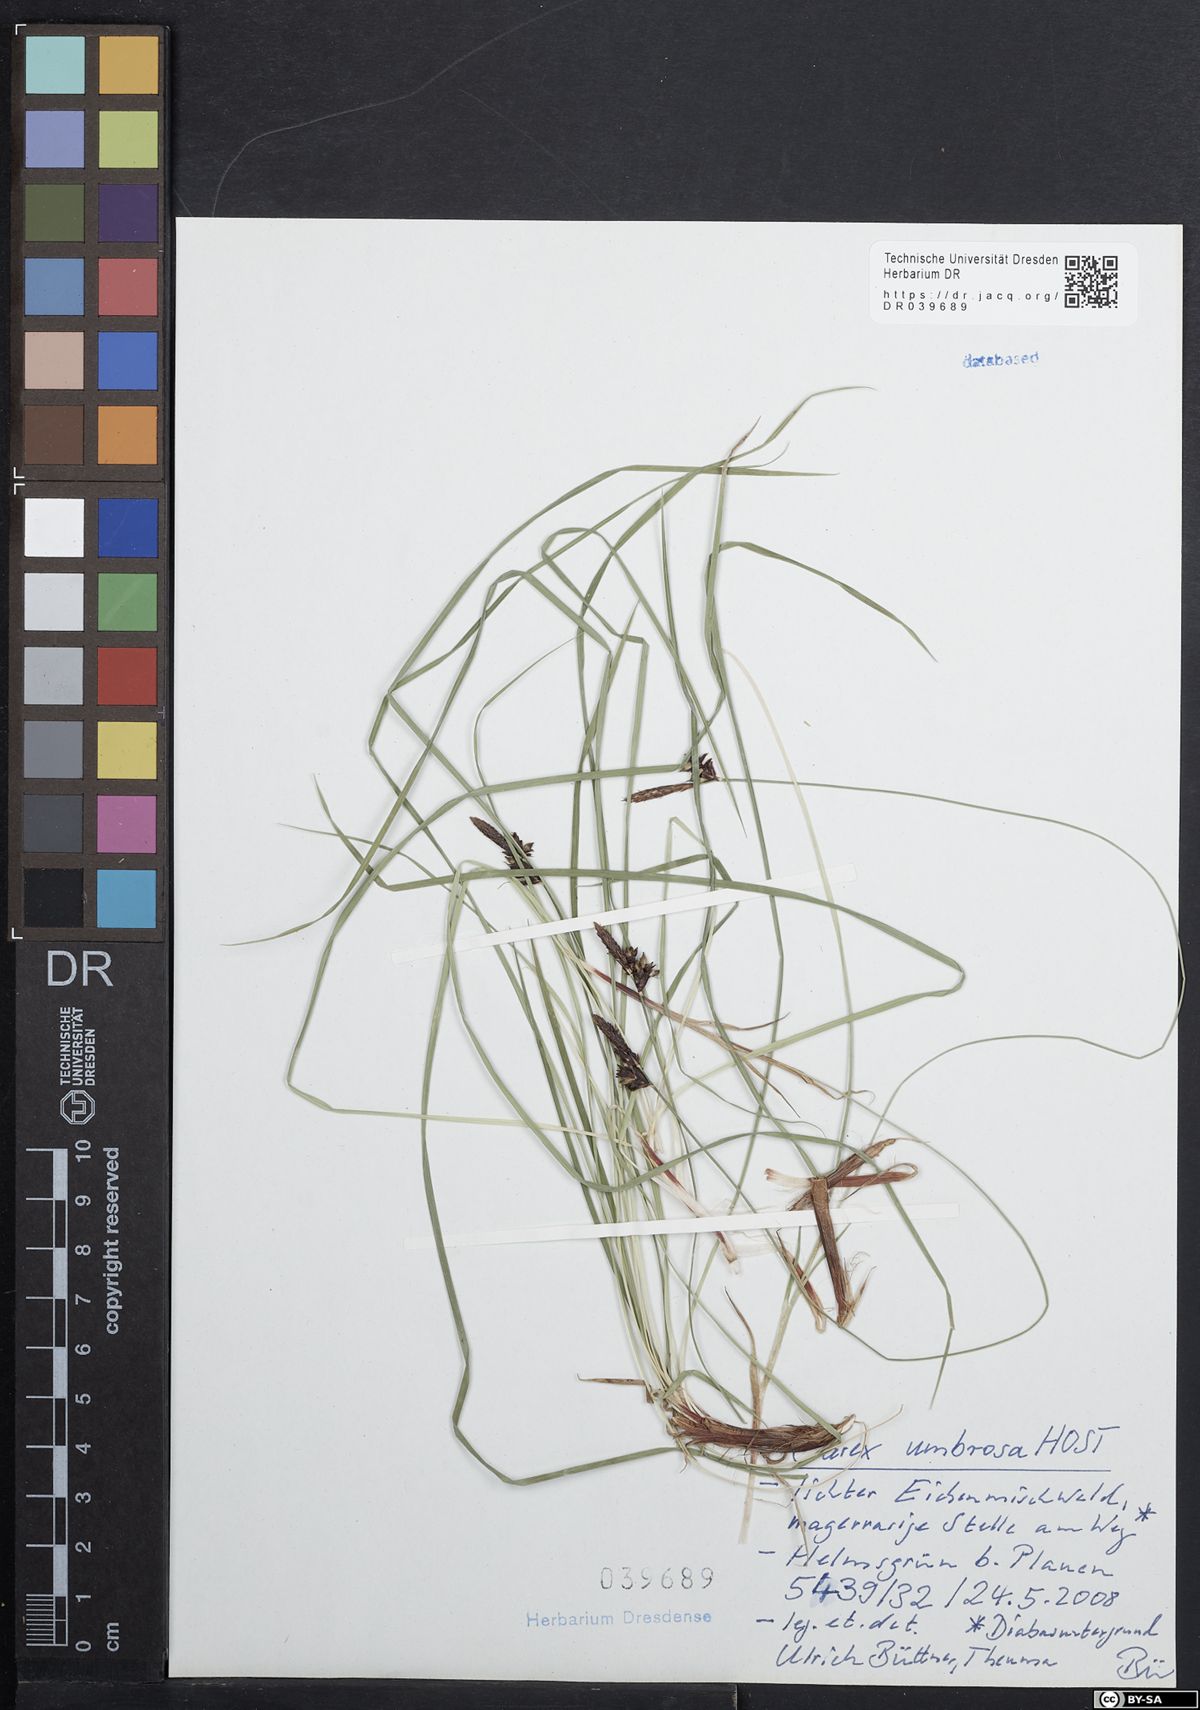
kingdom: Plantae
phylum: Tracheophyta
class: Liliopsida
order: Poales
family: Cyperaceae
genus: Carex
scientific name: Carex umbrosa
